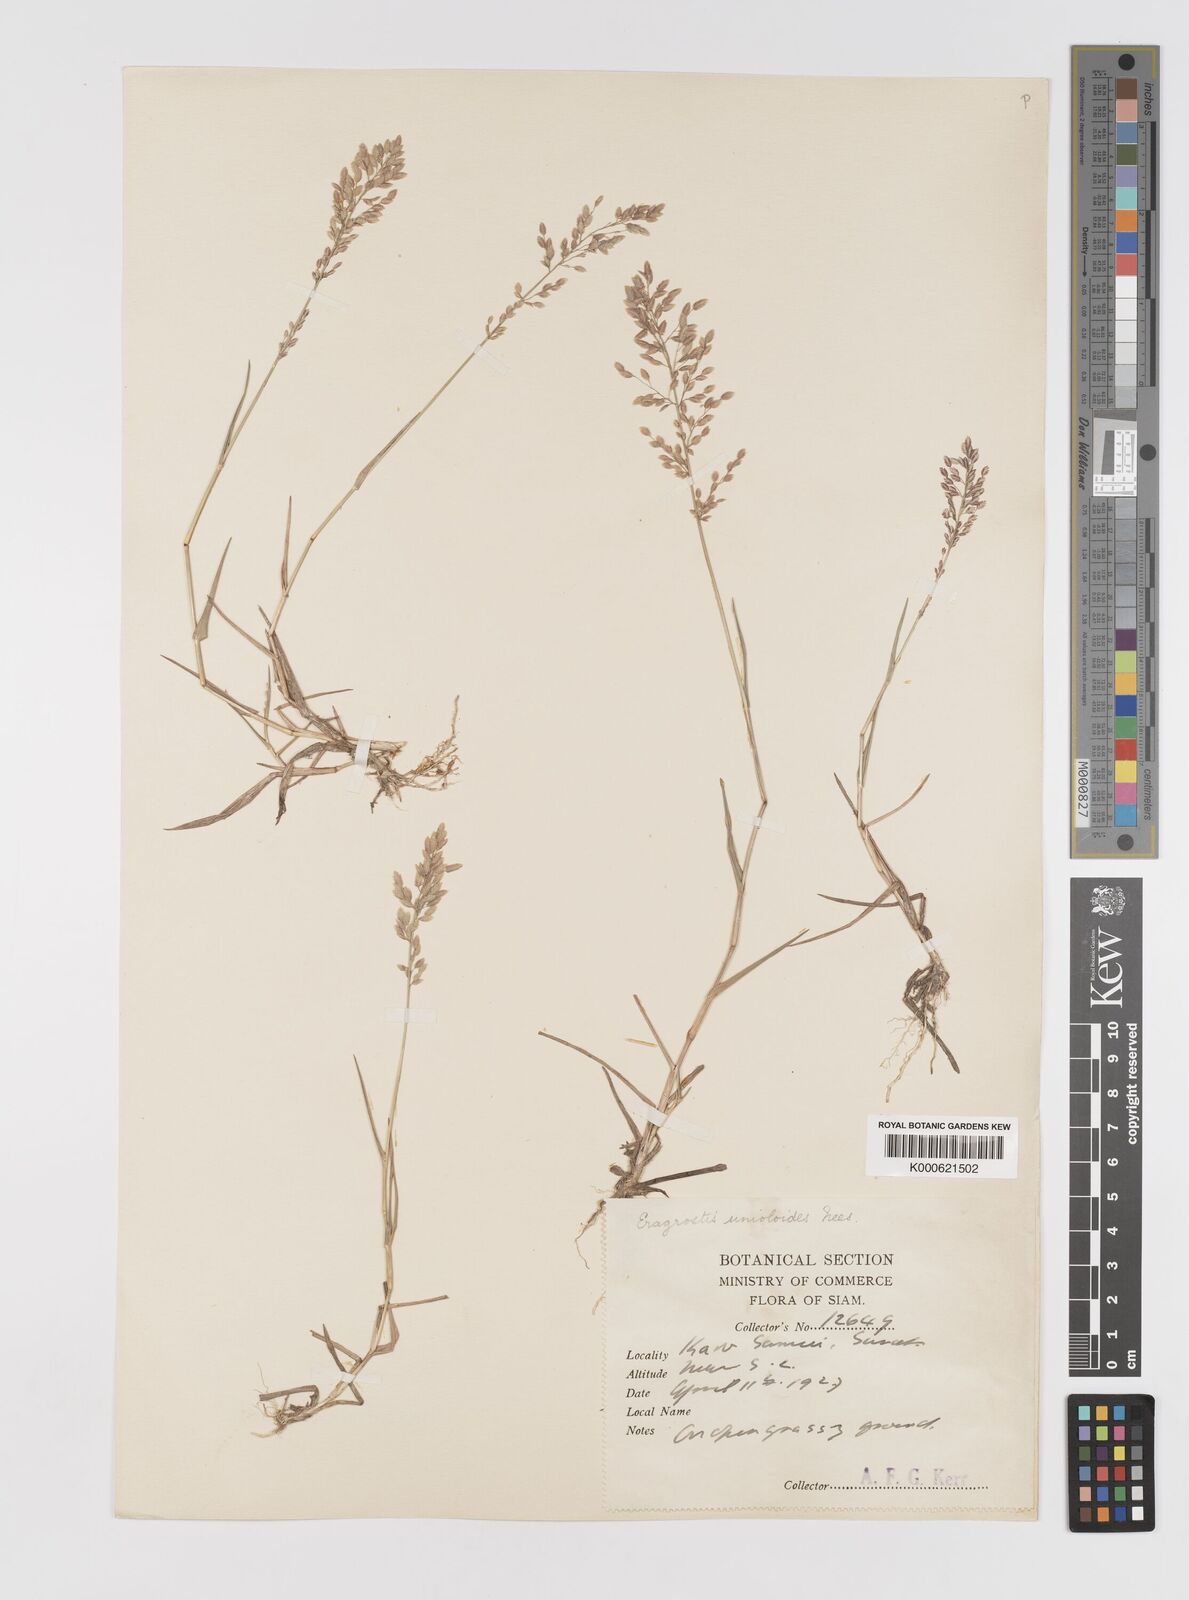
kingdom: Plantae
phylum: Tracheophyta
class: Liliopsida
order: Poales
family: Poaceae
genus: Eragrostis
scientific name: Eragrostis unioloides
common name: Chinese lovegrass
